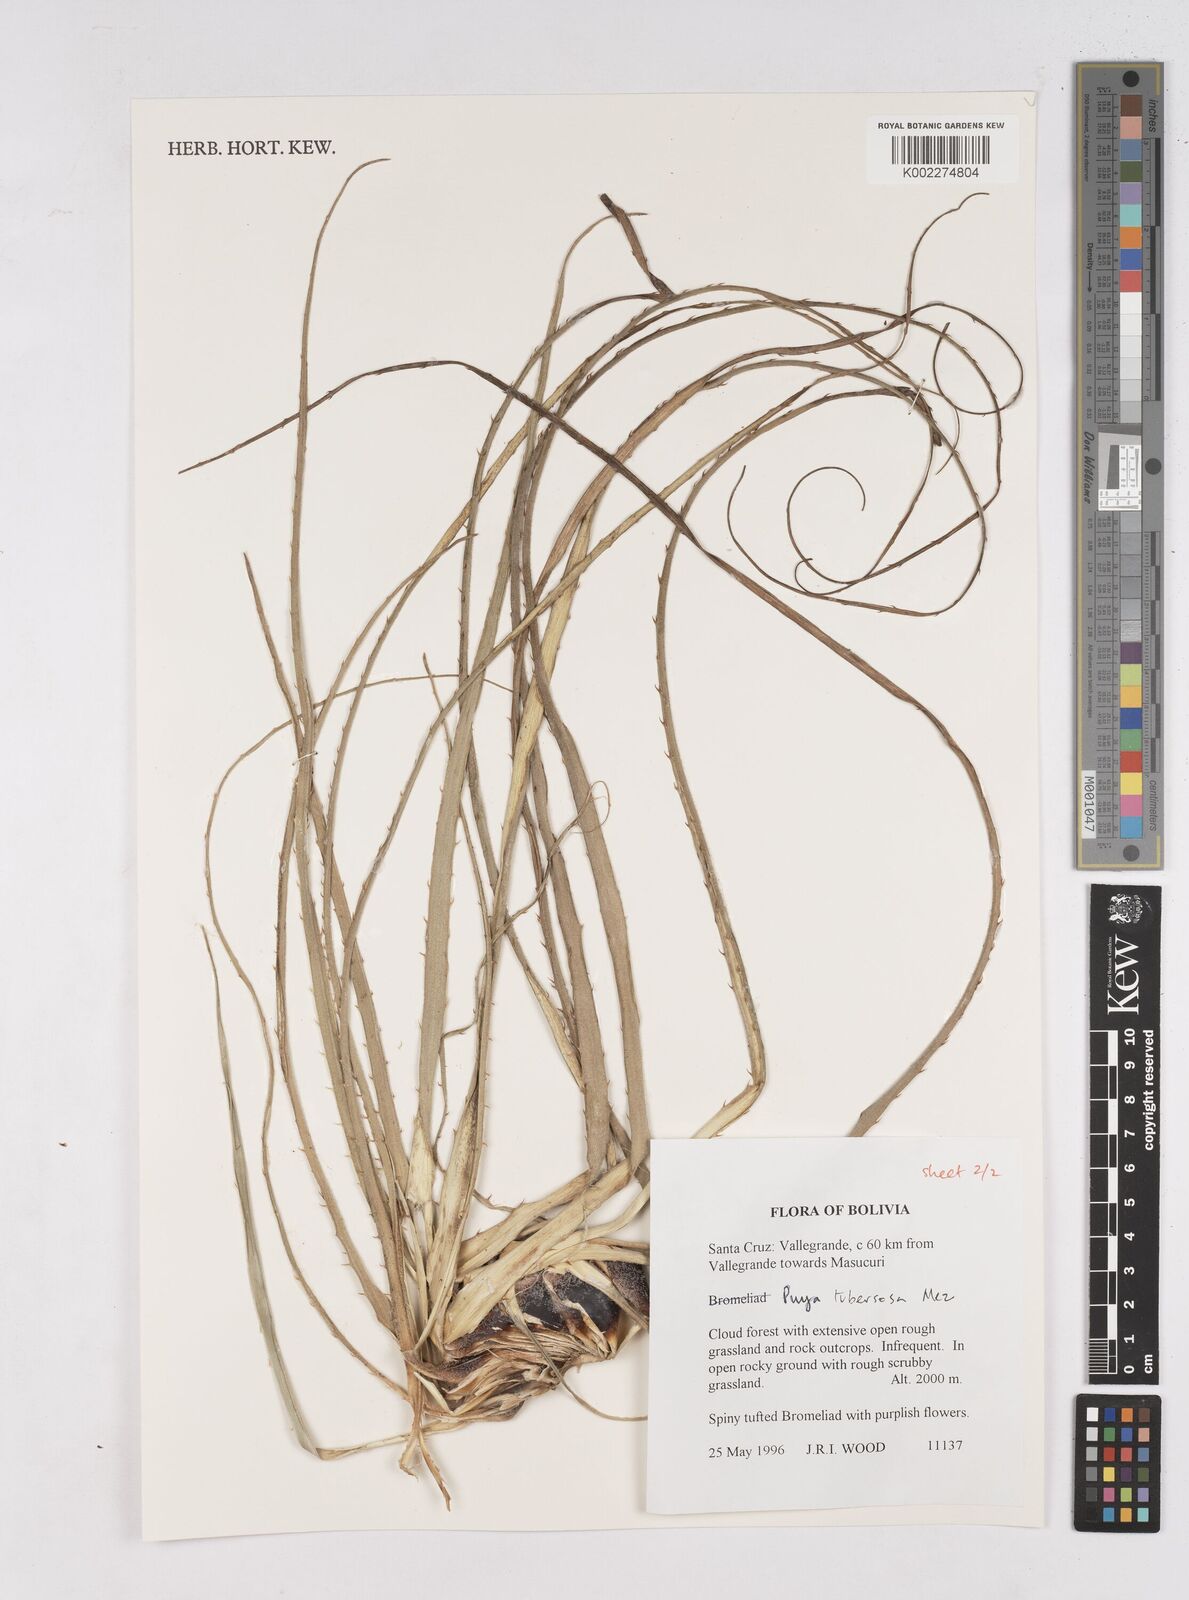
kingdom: Plantae
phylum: Tracheophyta
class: Liliopsida
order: Poales
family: Bromeliaceae
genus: Puya
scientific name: Puya tuberosa
